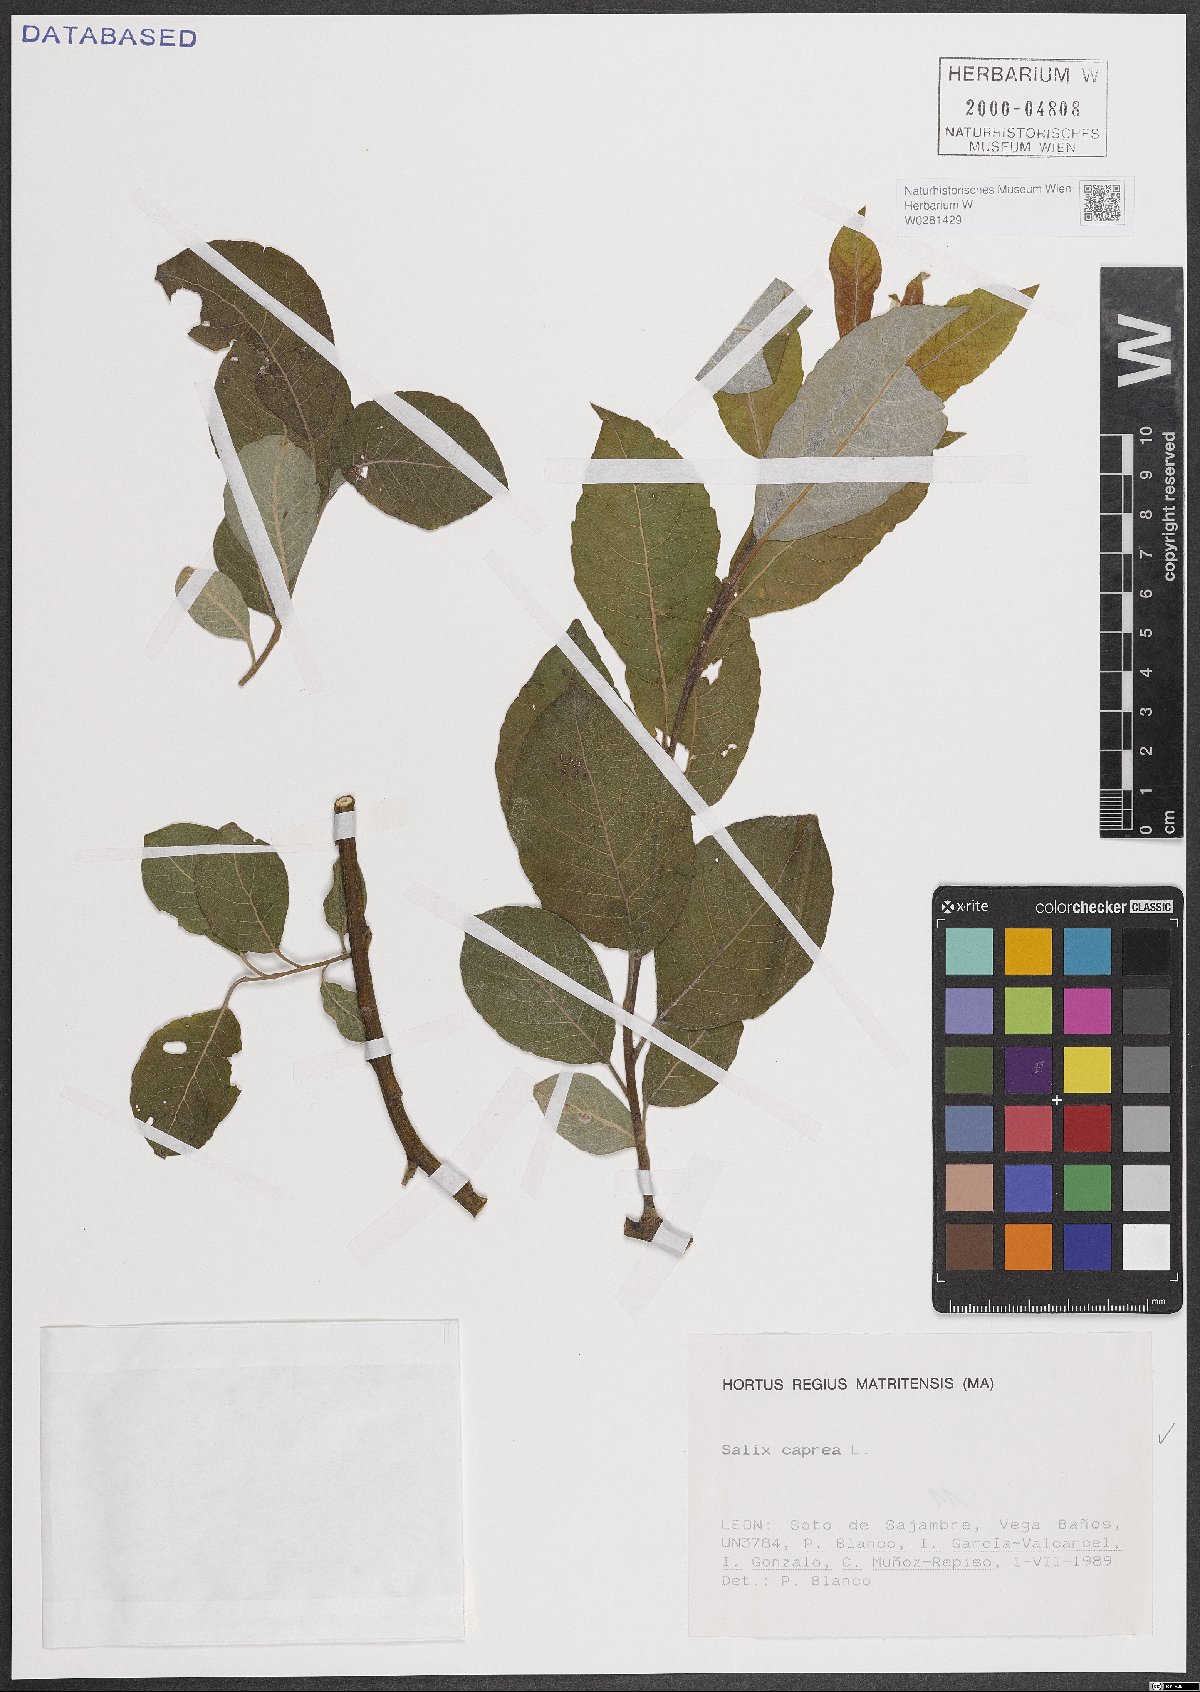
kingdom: Plantae
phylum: Tracheophyta
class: Magnoliopsida
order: Malpighiales
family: Salicaceae
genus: Salix
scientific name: Salix caprea
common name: Goat willow
